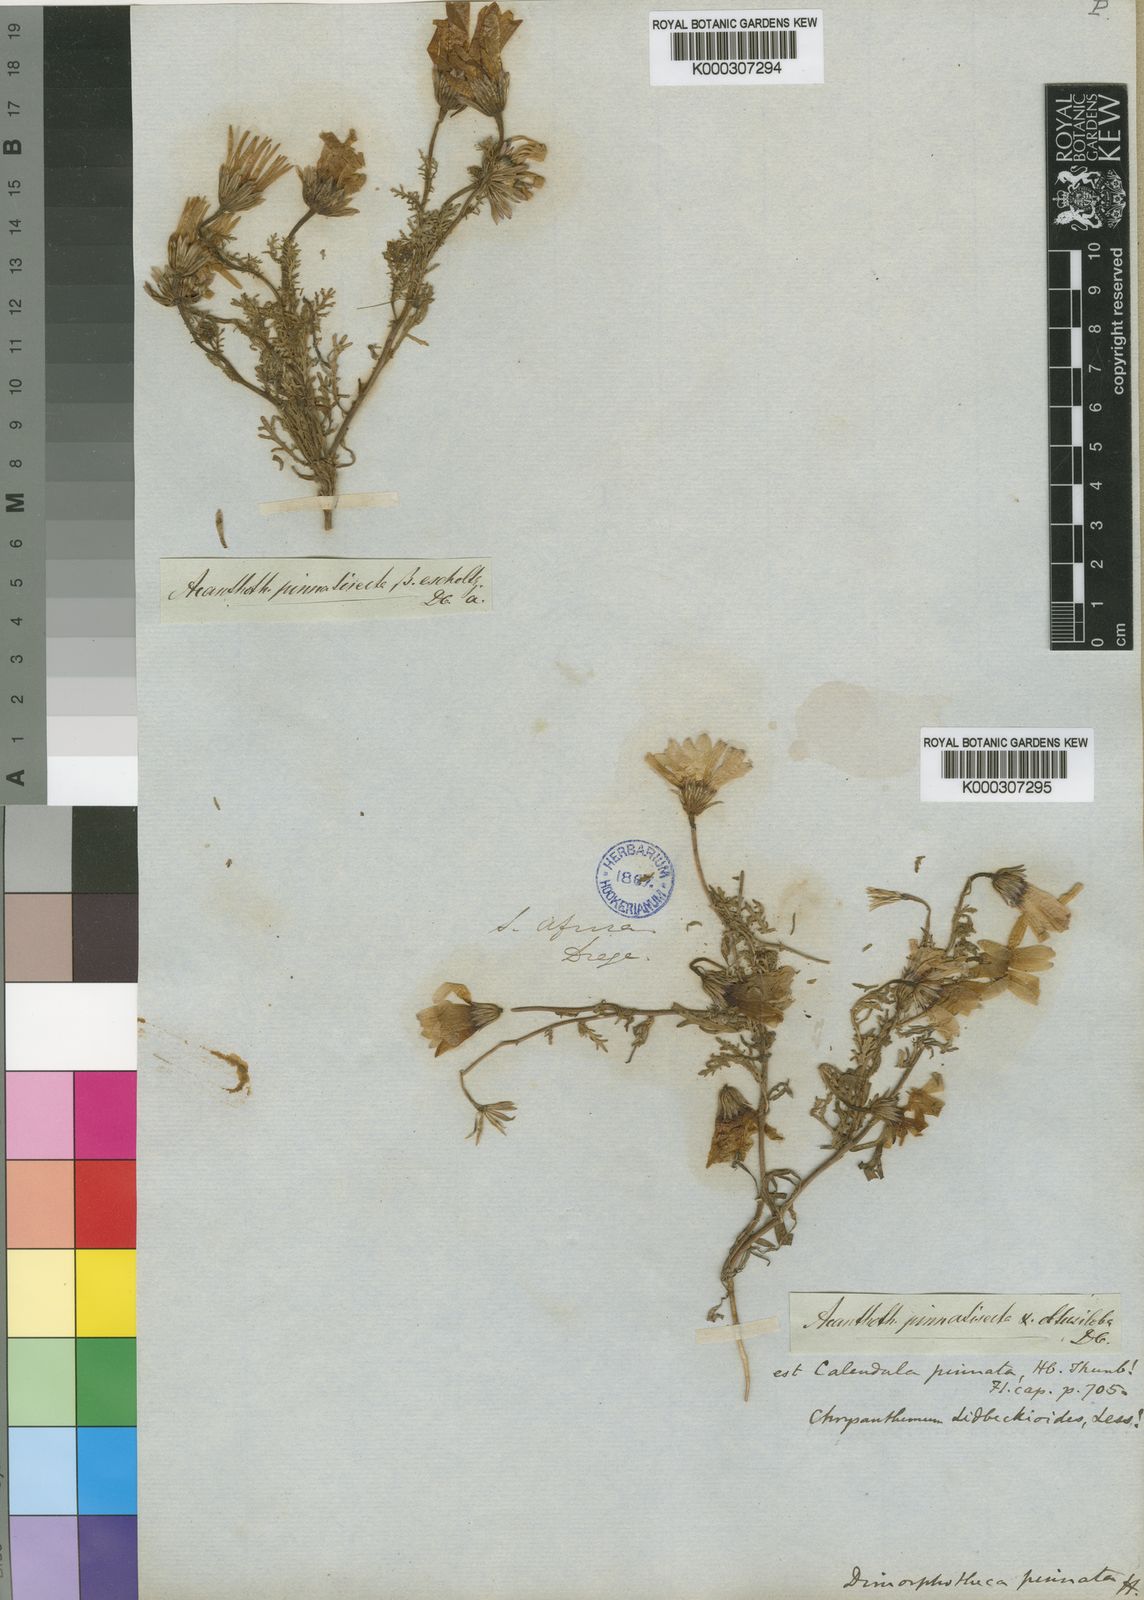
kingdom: Plantae
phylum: Tracheophyta
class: Magnoliopsida
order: Asterales
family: Asteraceae
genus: Dimorphotheca
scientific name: Dimorphotheca pinnata
